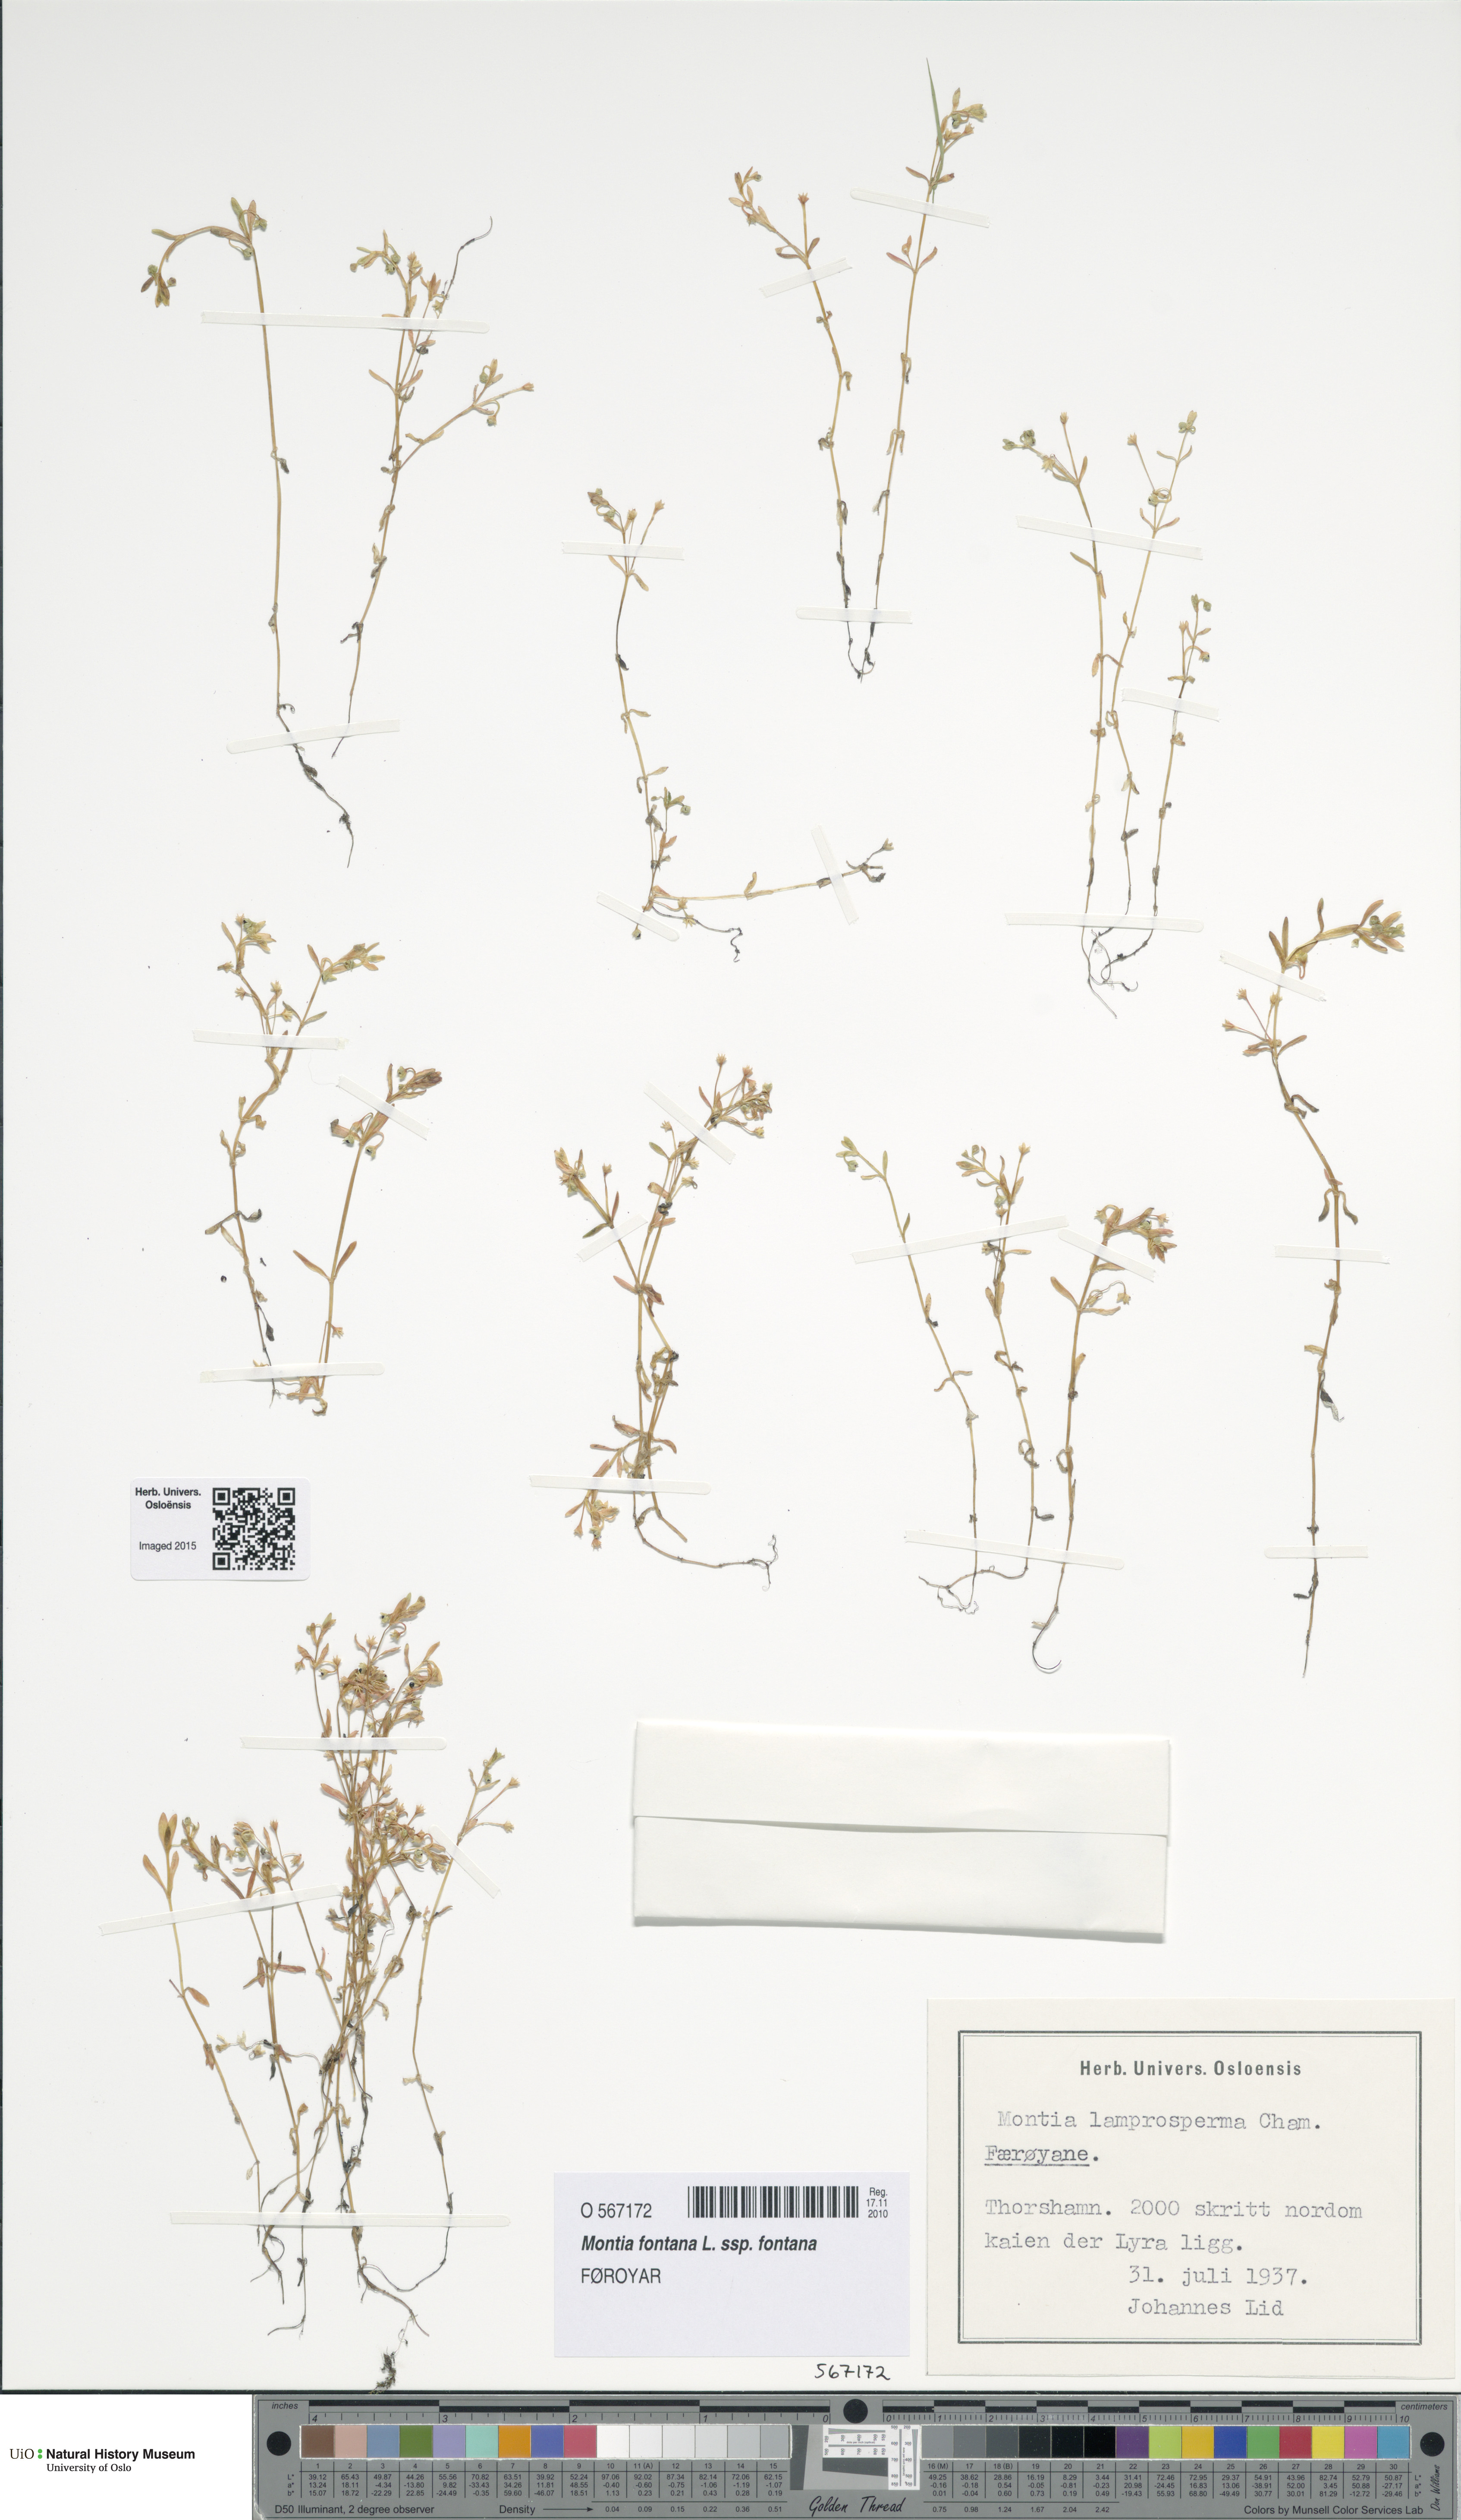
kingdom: Plantae
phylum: Tracheophyta
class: Magnoliopsida
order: Caryophyllales
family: Montiaceae
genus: Montia
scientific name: Montia fontana
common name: Blinks
